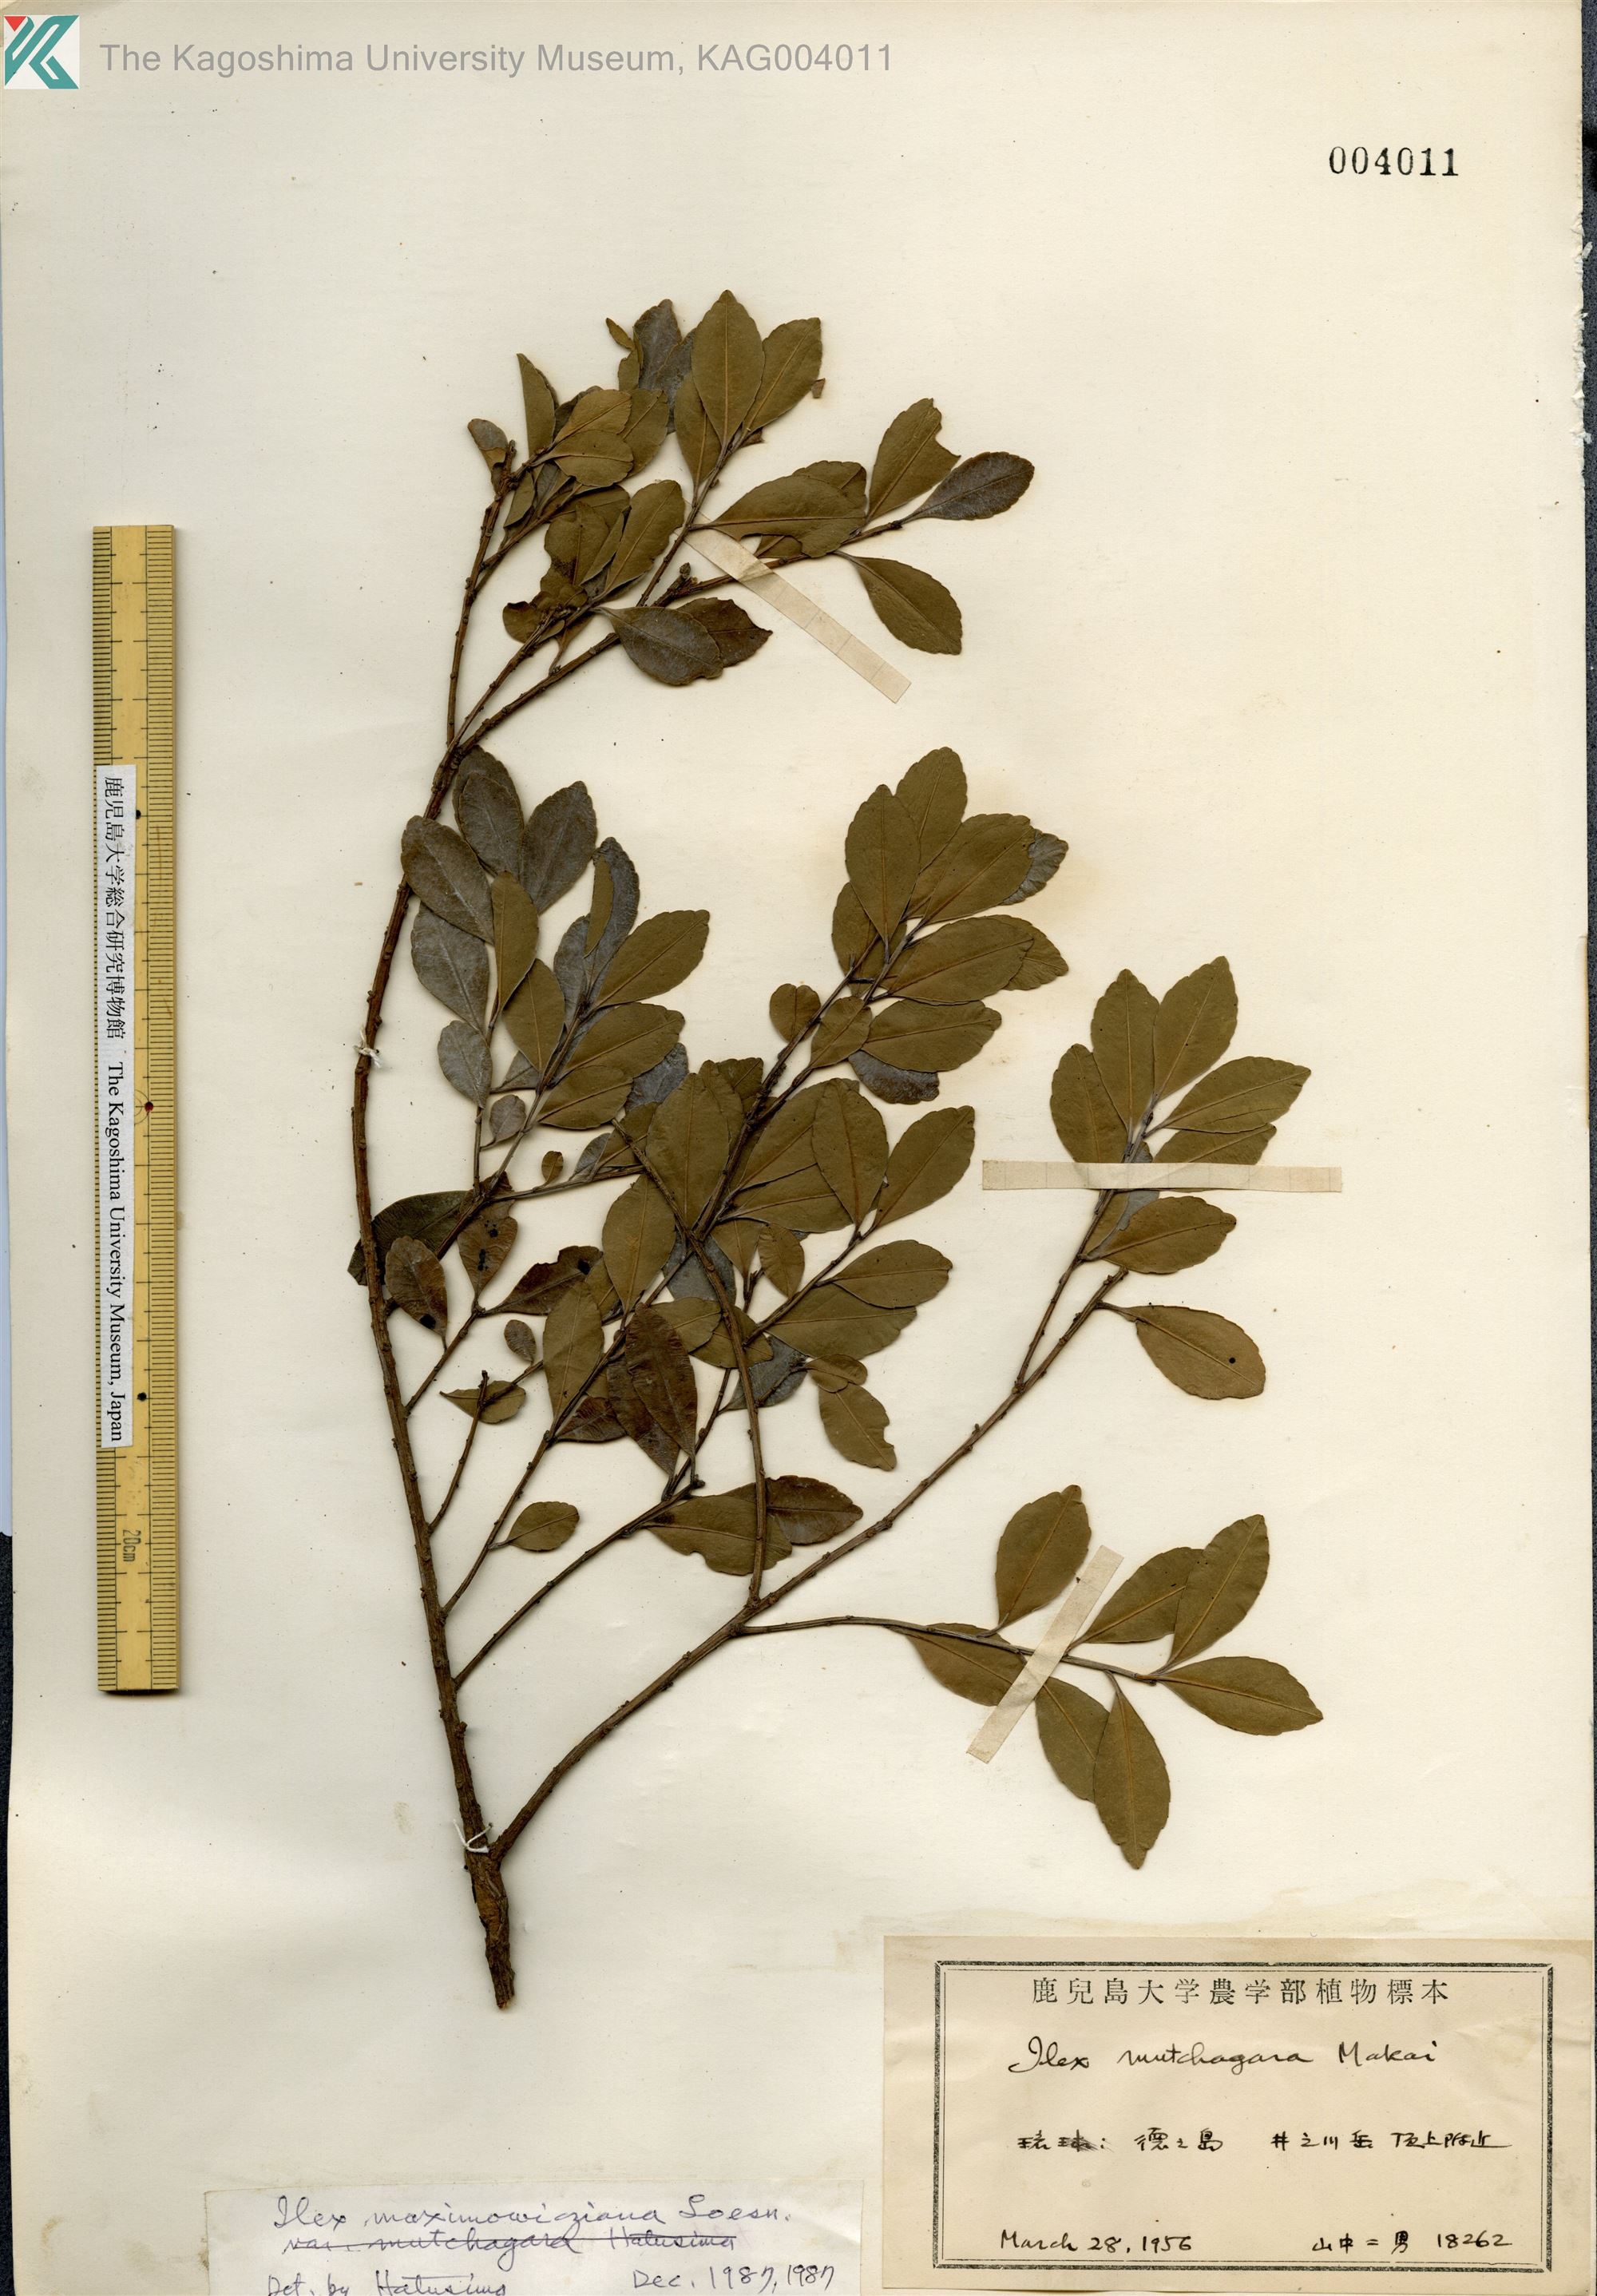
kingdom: Plantae
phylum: Tracheophyta
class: Magnoliopsida
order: Aquifoliales
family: Aquifoliaceae
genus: Ilex
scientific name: Ilex maximowicziana
